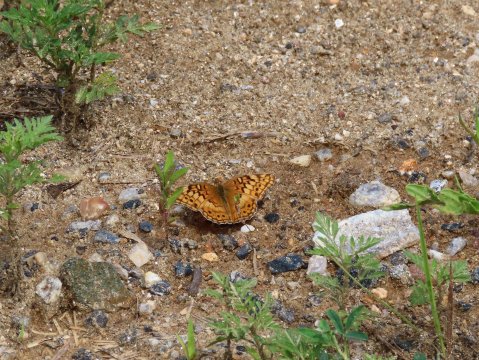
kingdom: Animalia
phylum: Arthropoda
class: Insecta
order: Lepidoptera
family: Nymphalidae
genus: Euptoieta
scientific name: Euptoieta claudia
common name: Variegated Fritillary
